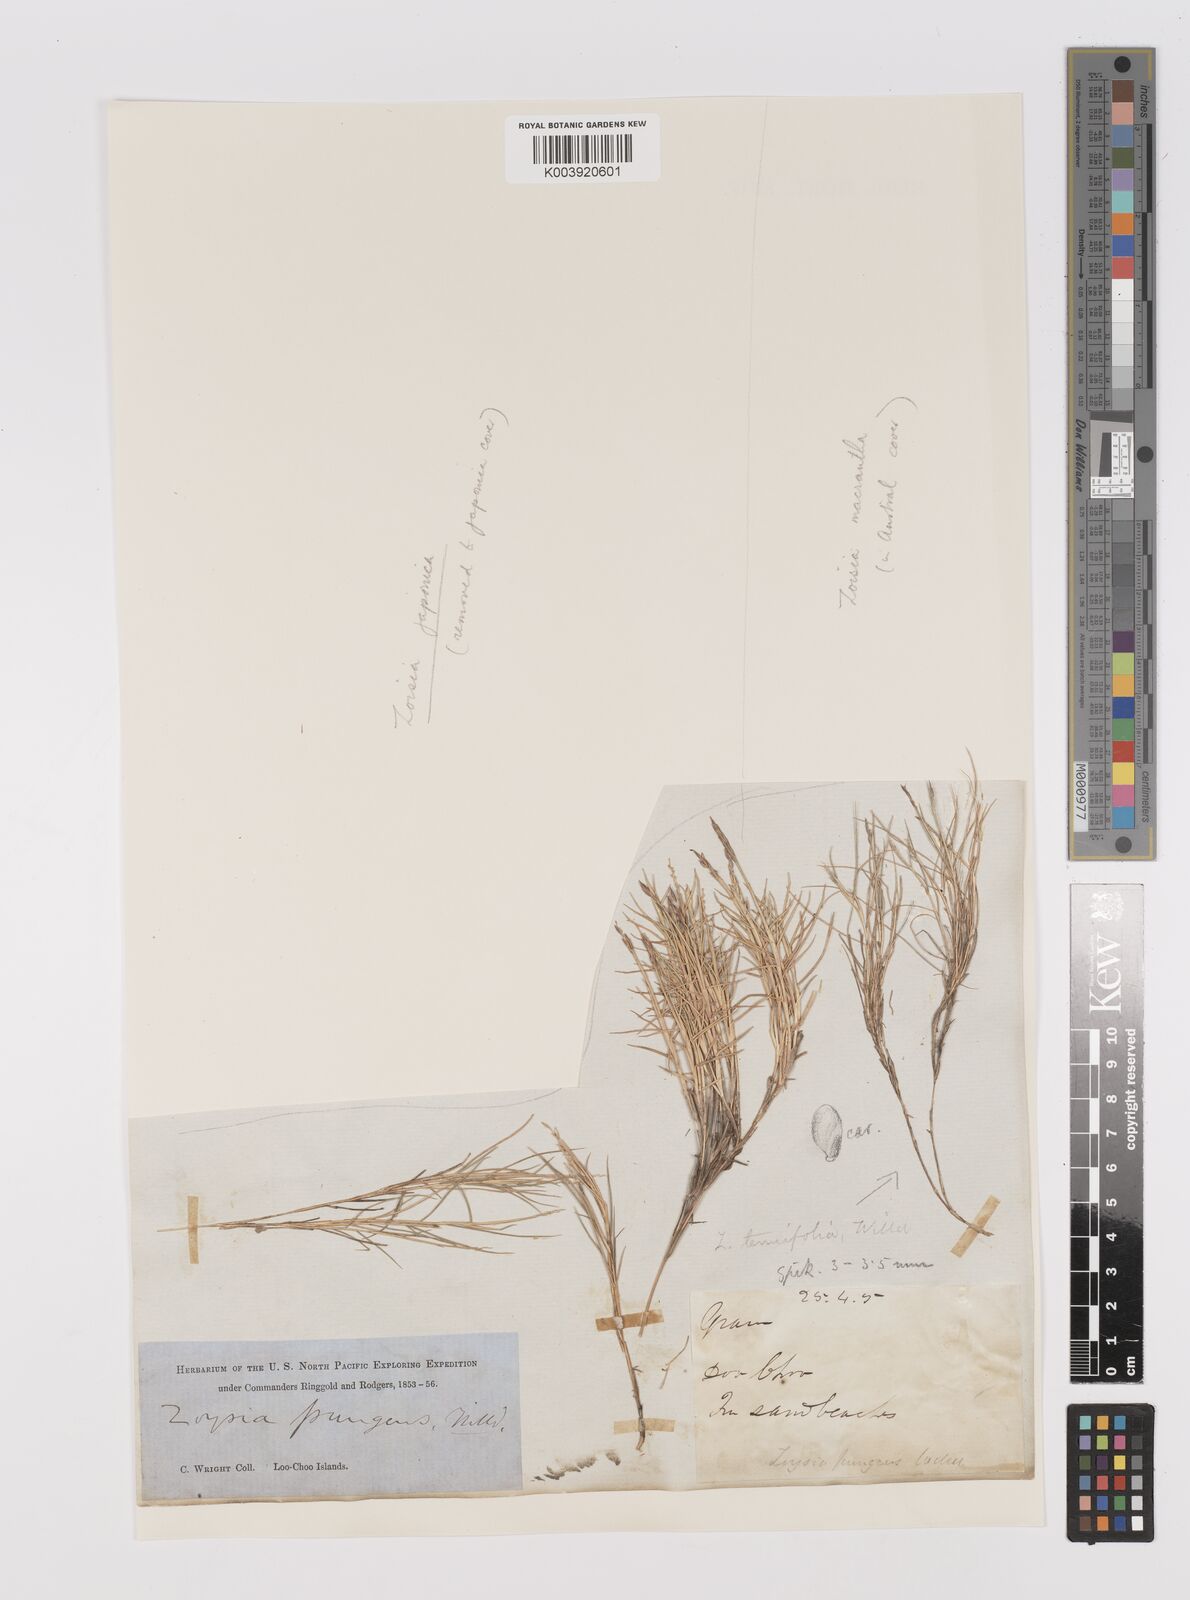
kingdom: Plantae
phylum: Tracheophyta
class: Liliopsida
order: Poales
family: Poaceae
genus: Zoysia
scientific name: Zoysia matrella
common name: Manila grass
